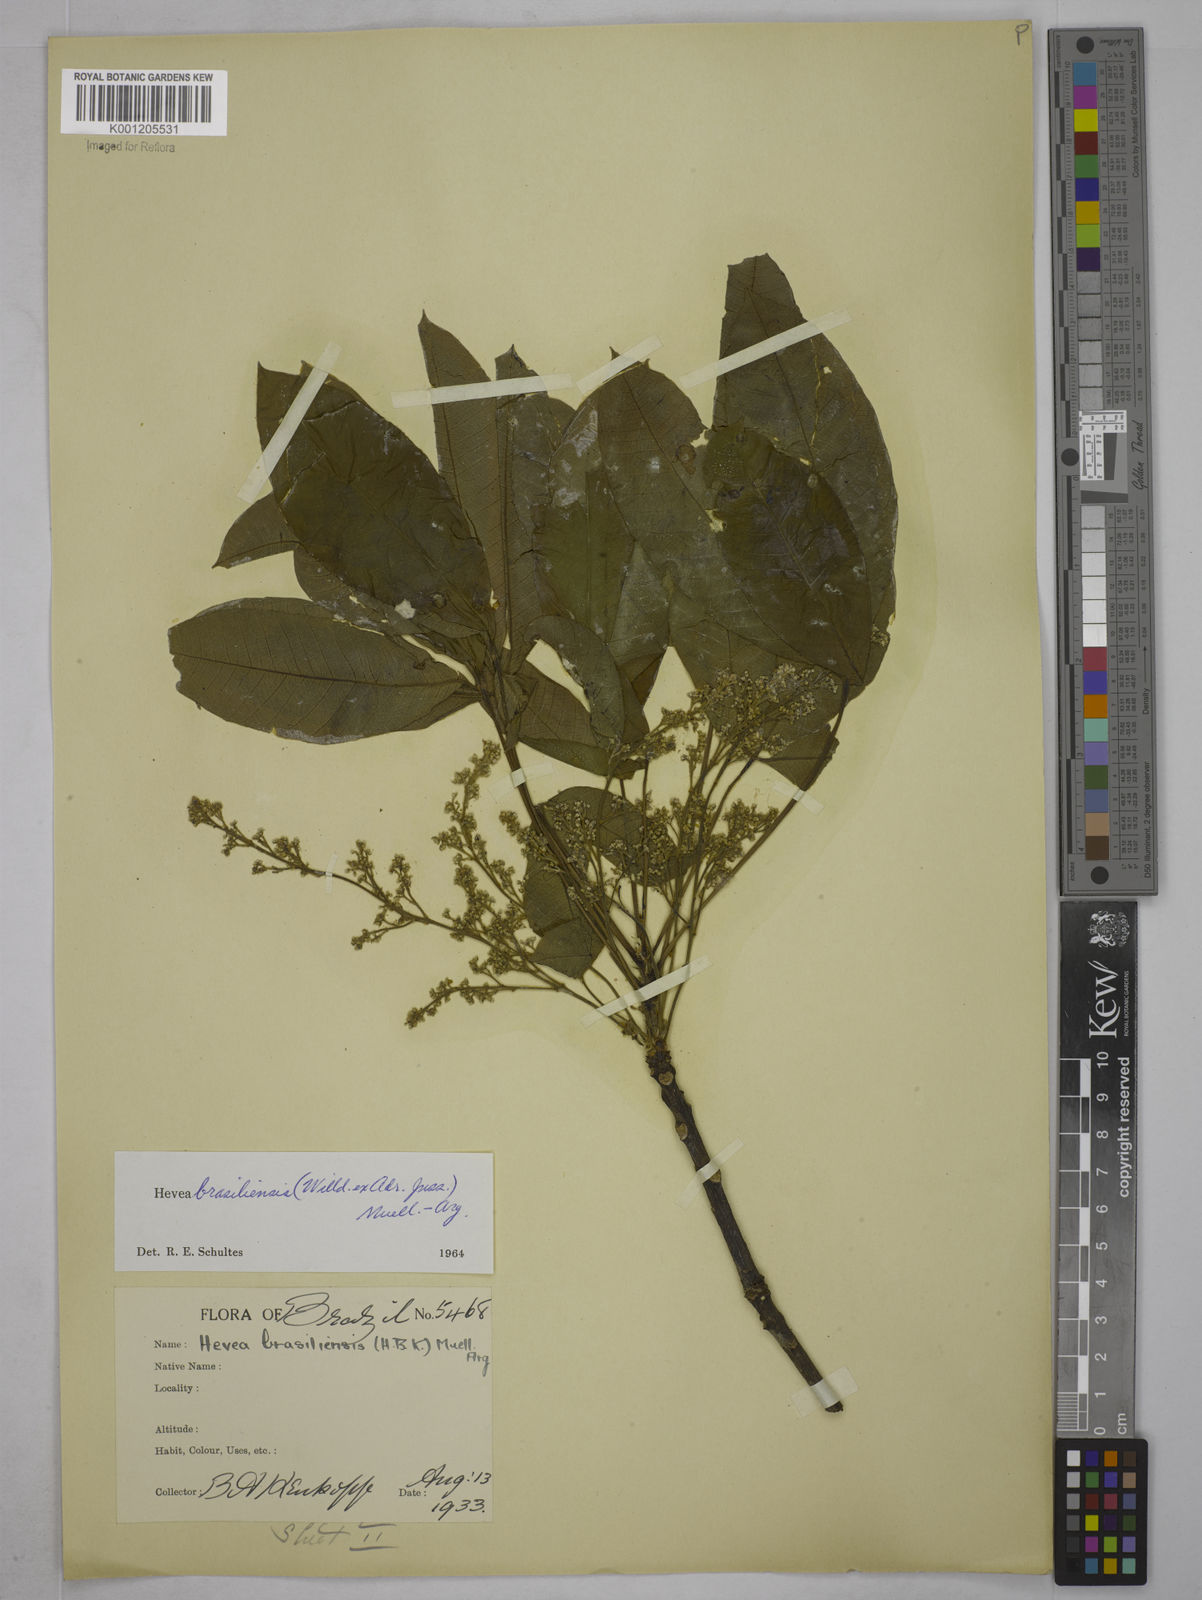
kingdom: Plantae
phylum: Tracheophyta
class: Magnoliopsida
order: Malpighiales
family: Euphorbiaceae
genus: Hevea
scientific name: Hevea
